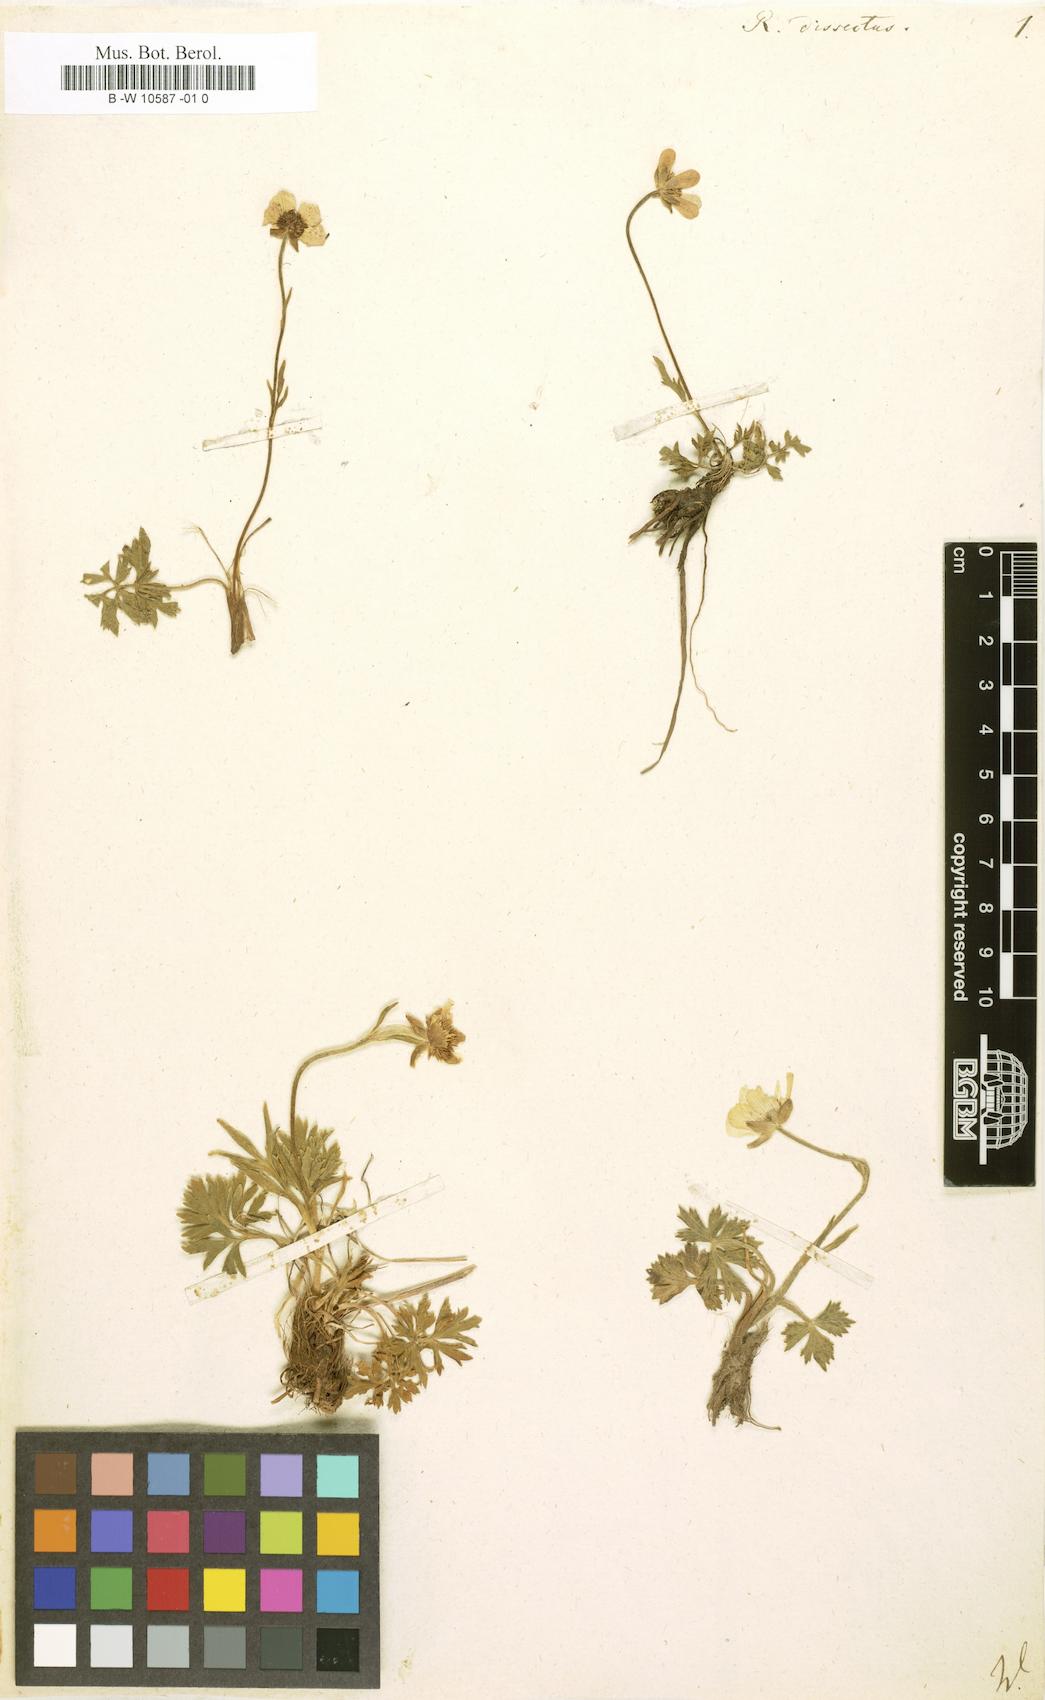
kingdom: Plantae
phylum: Tracheophyta
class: Magnoliopsida
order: Ranunculales
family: Ranunculaceae
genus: Ranunculus
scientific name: Ranunculus dissectus
